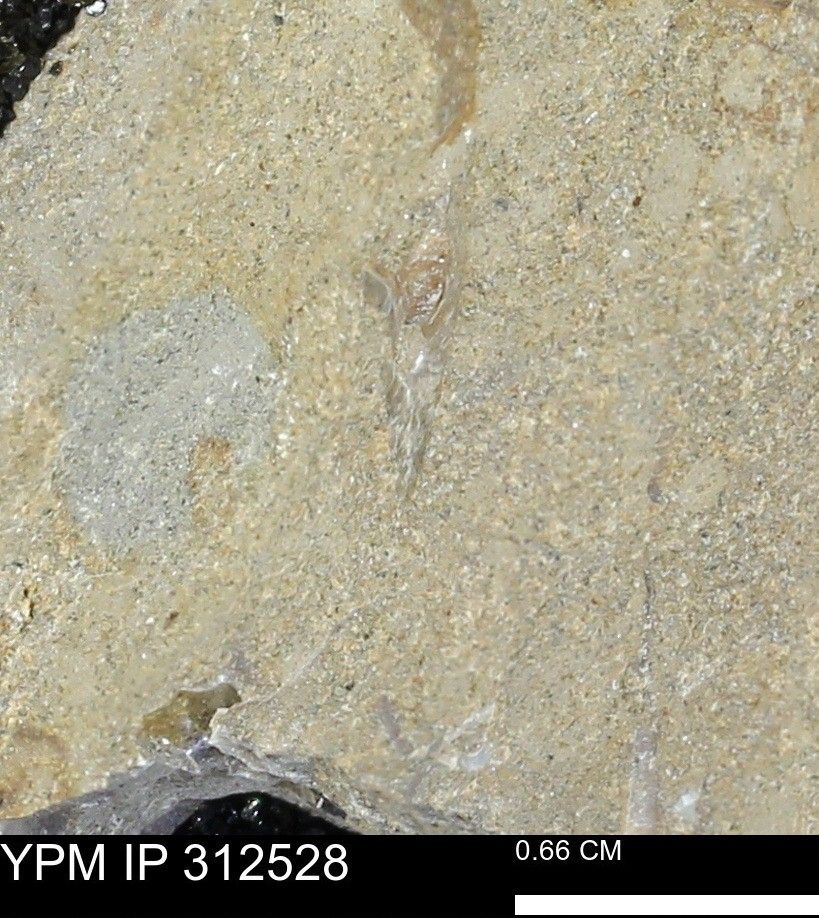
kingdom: Animalia
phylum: Mollusca
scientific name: Mollusca
